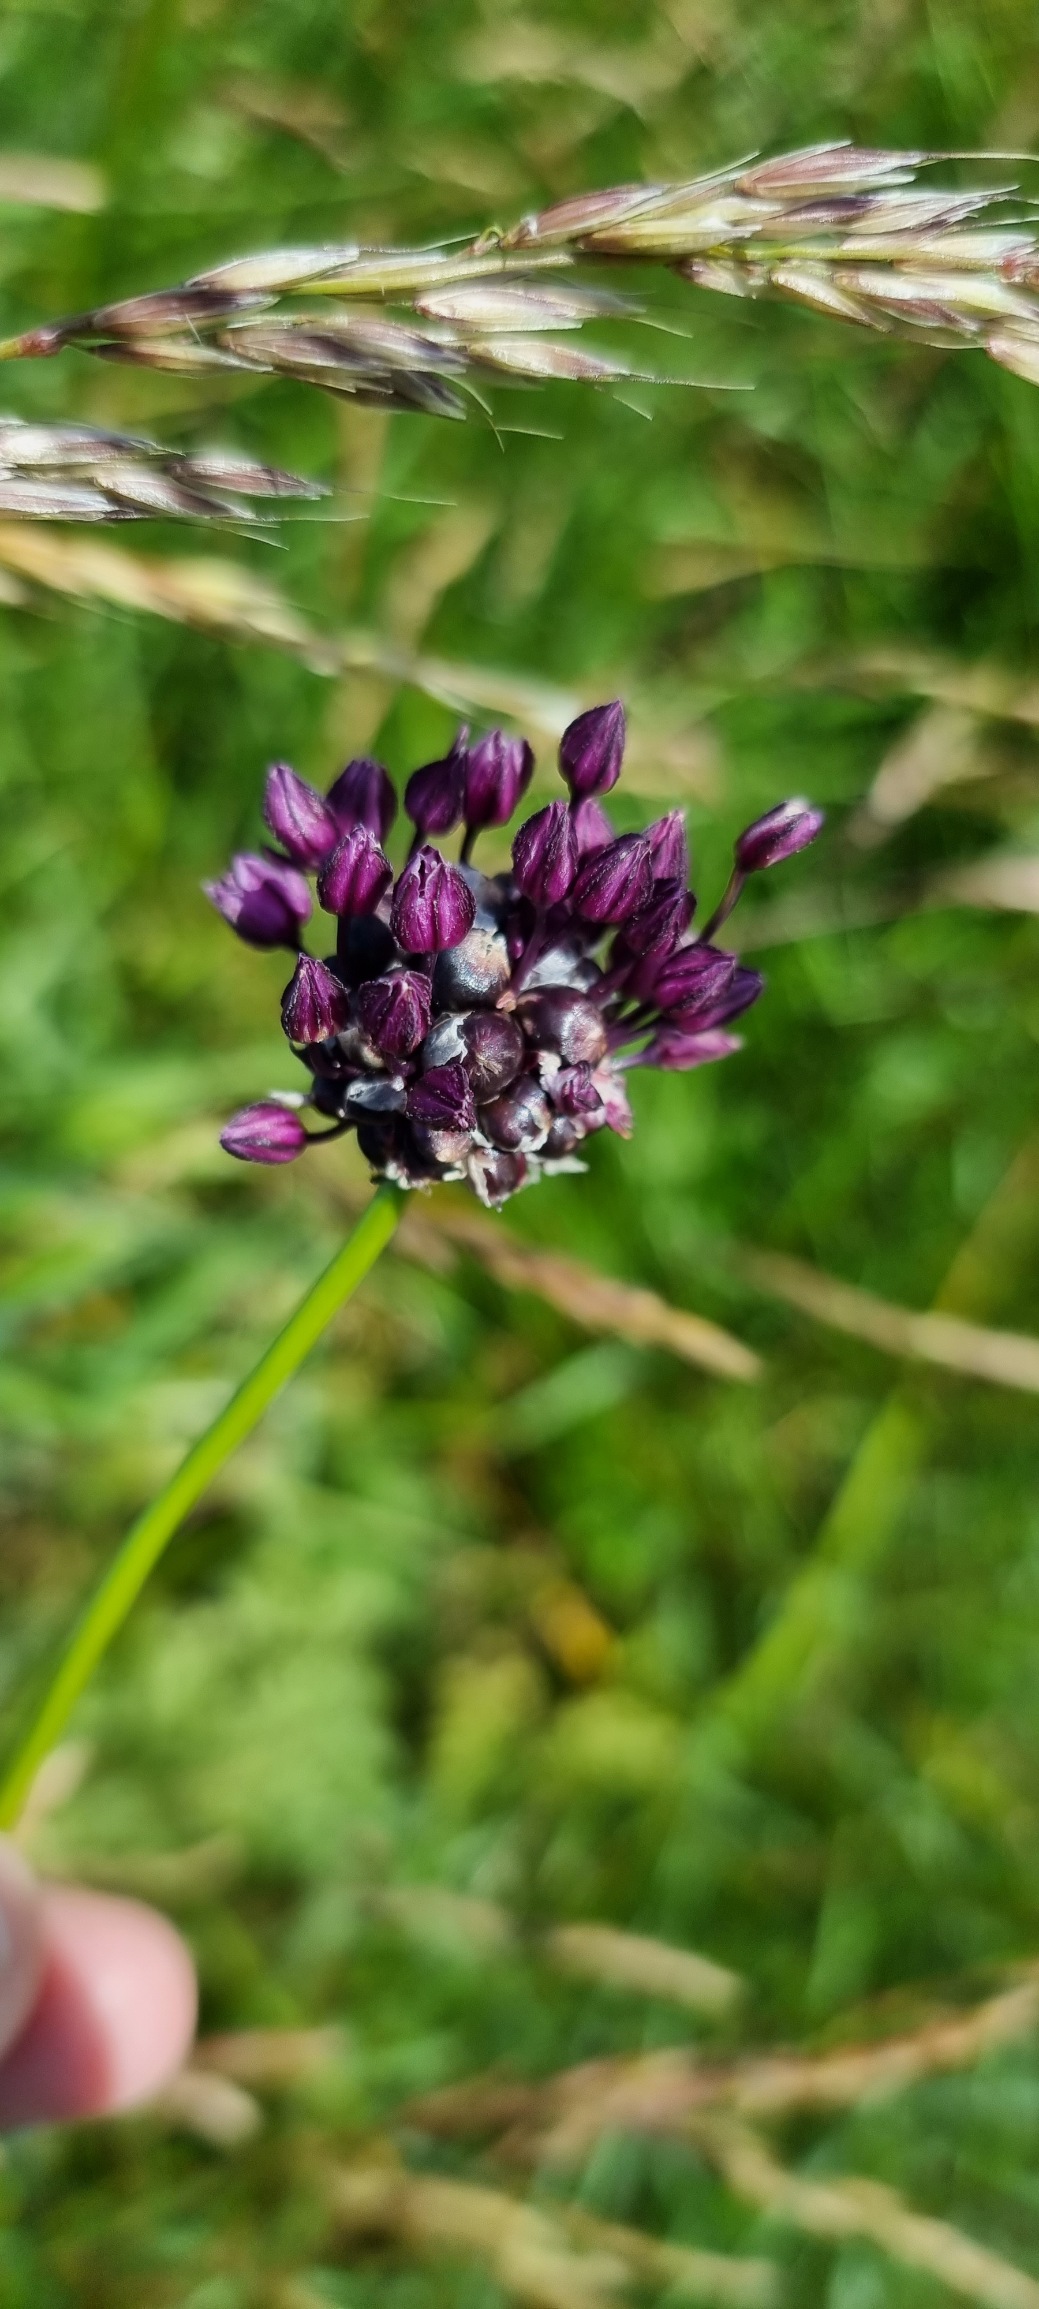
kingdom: Plantae
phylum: Tracheophyta
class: Liliopsida
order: Asparagales
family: Amaryllidaceae
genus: Allium
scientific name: Allium scorodoprasum
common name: Skov-løg
